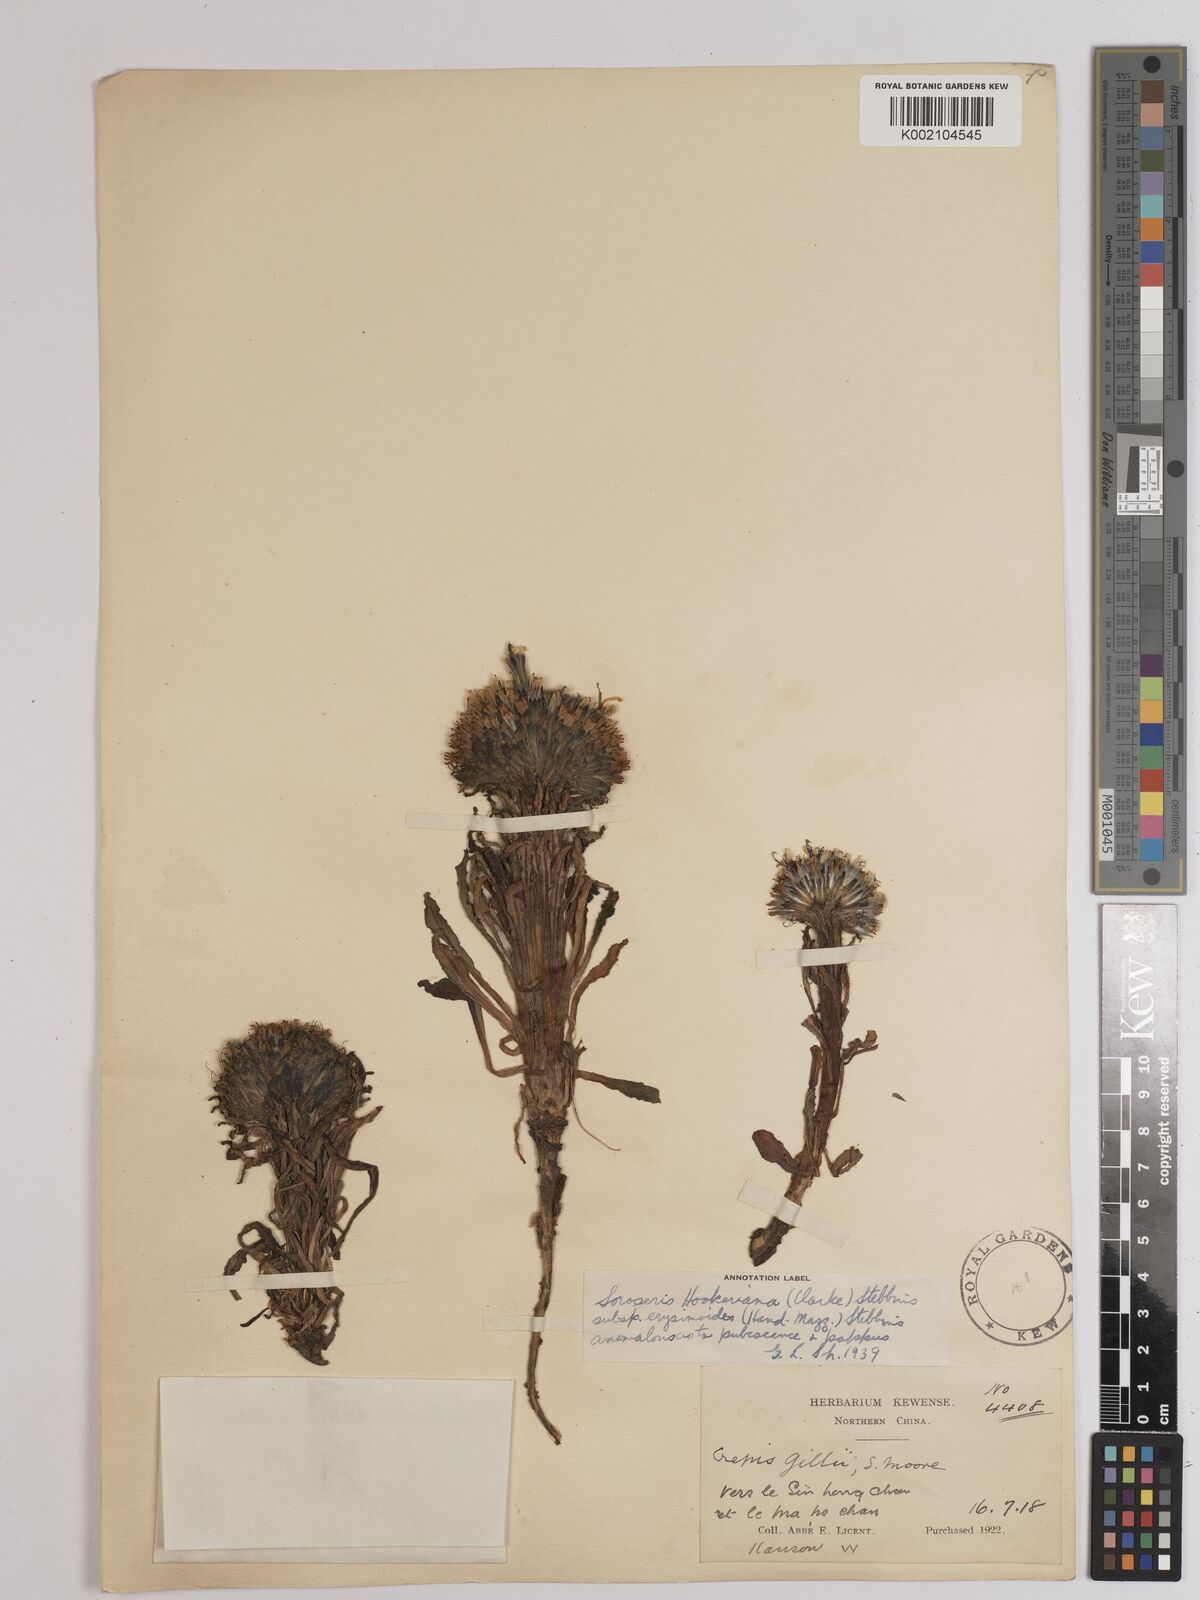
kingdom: Plantae
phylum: Tracheophyta
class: Magnoliopsida
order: Asterales
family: Asteraceae
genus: Soroseris
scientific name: Soroseris hookeriana
